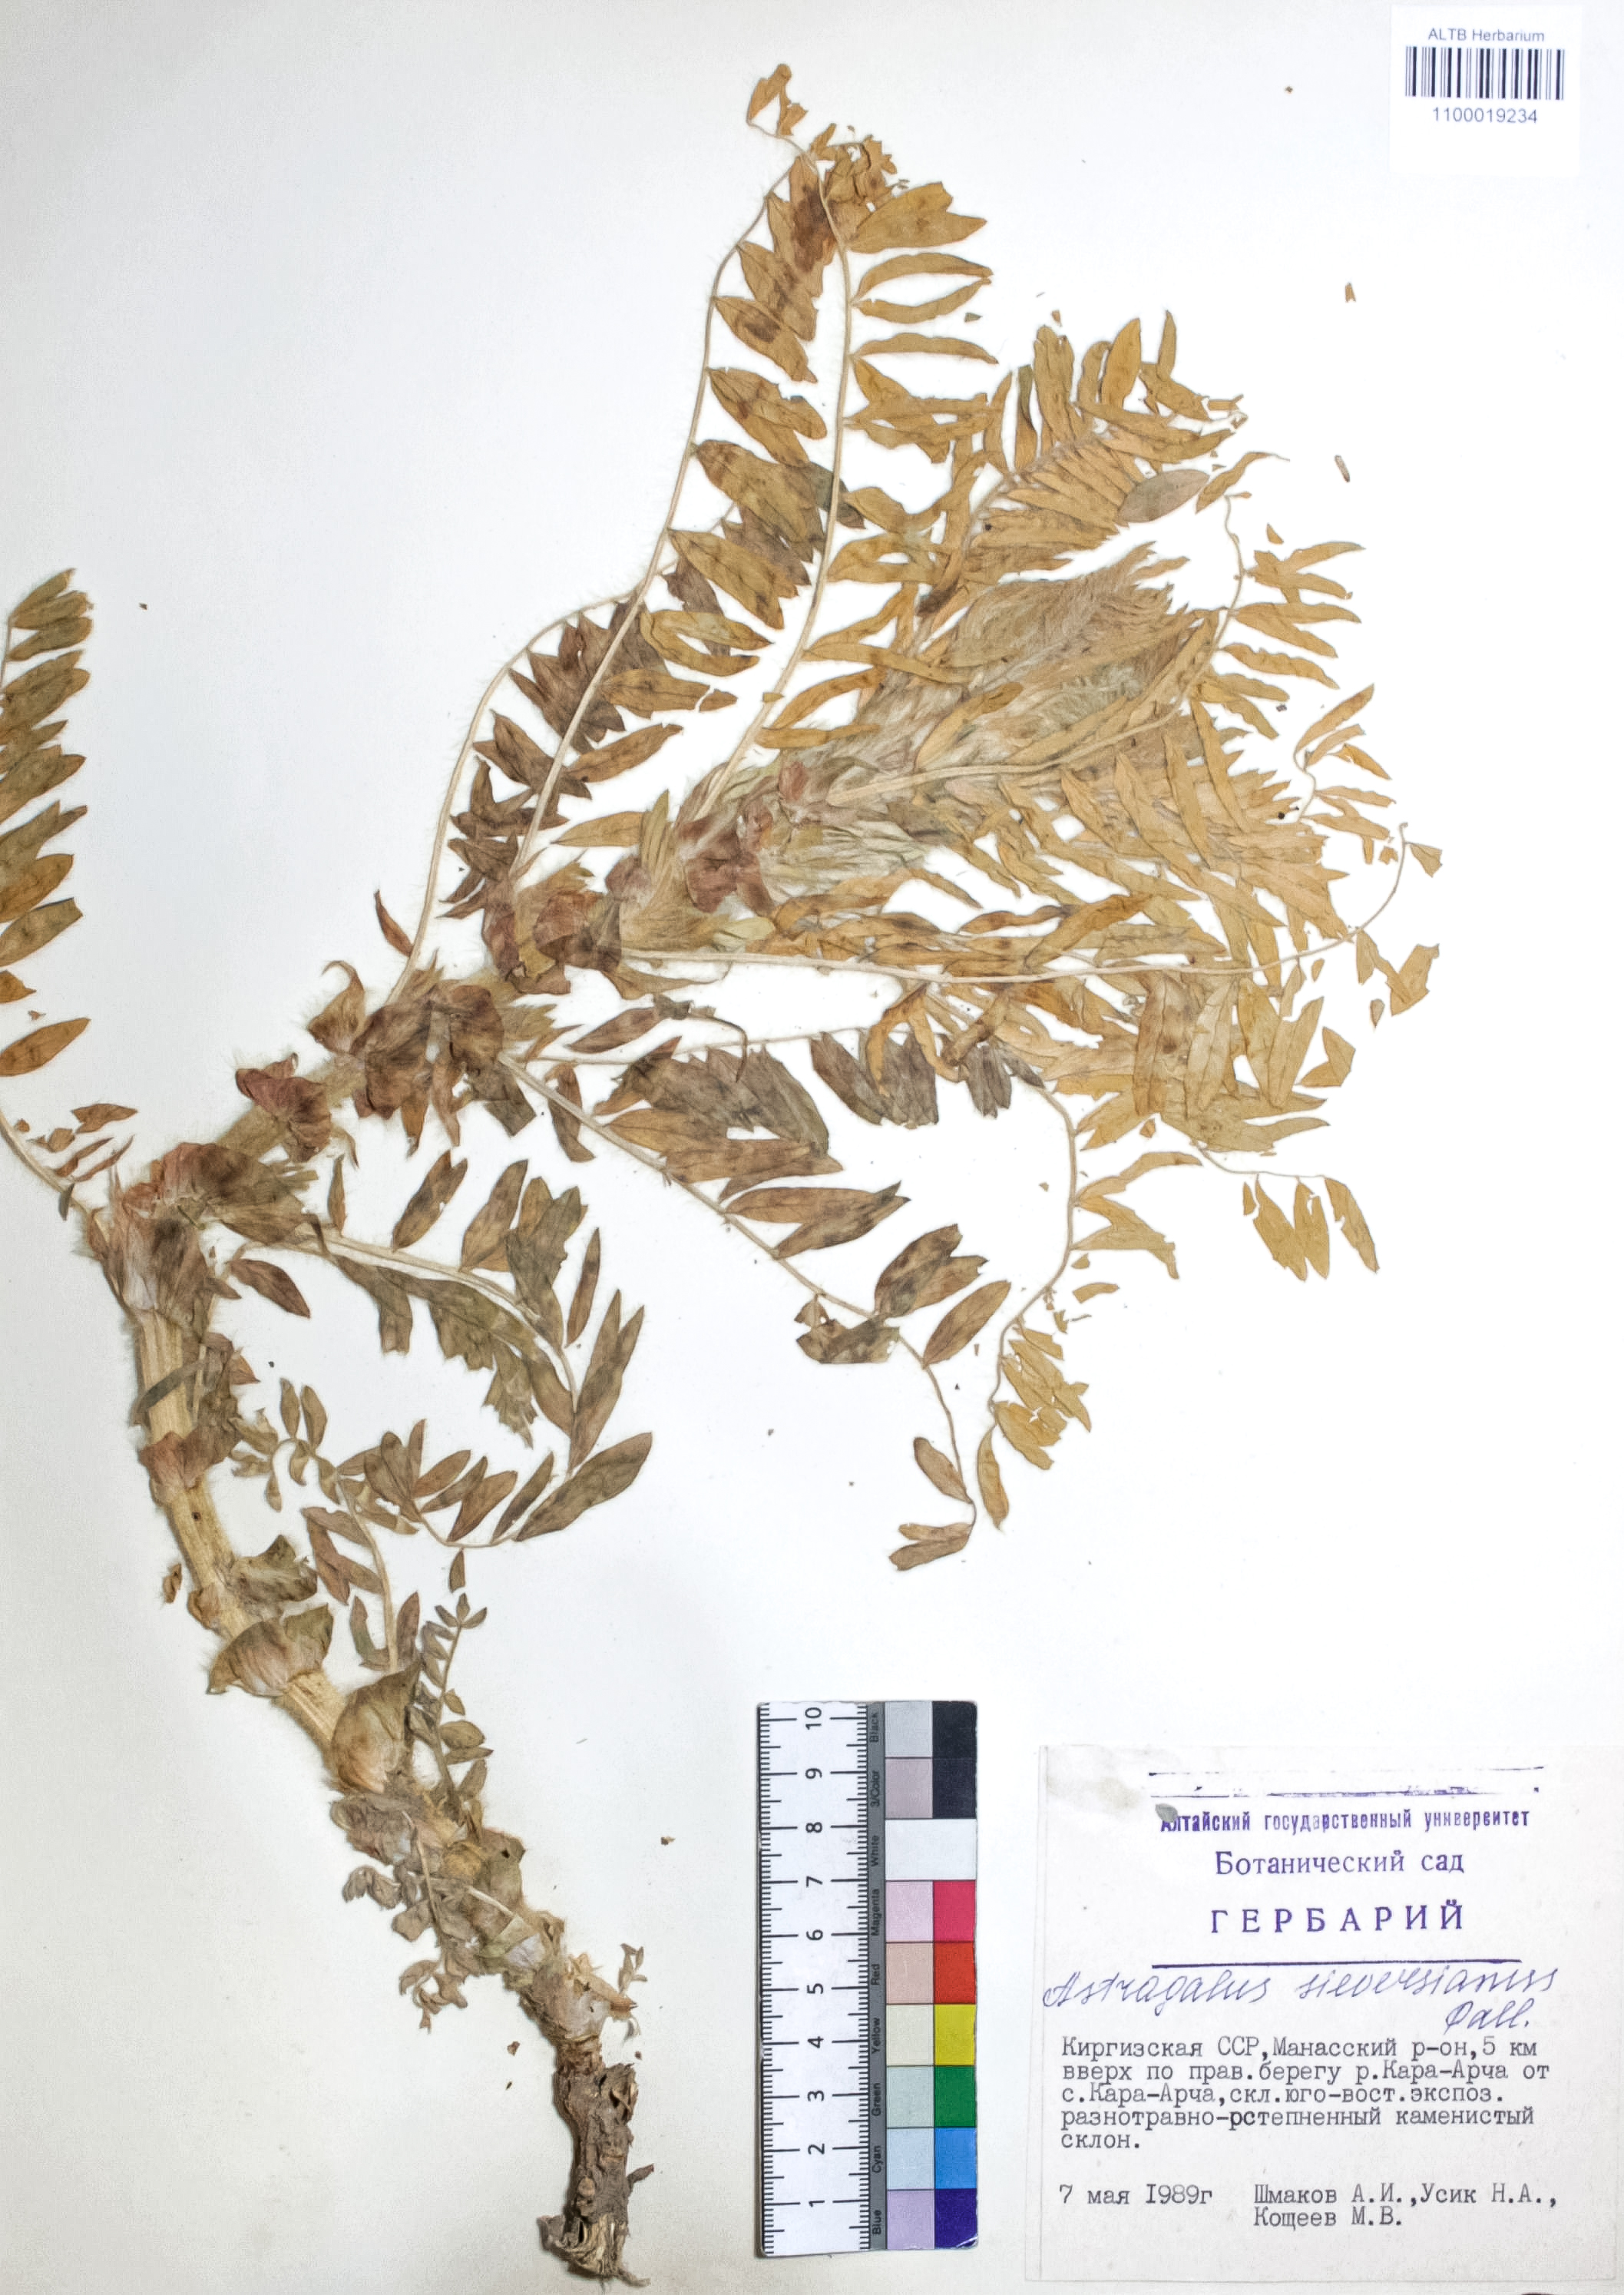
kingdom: Plantae
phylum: Tracheophyta
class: Magnoliopsida
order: Fabales
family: Fabaceae
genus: Astragalus
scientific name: Astragalus sieversianus
